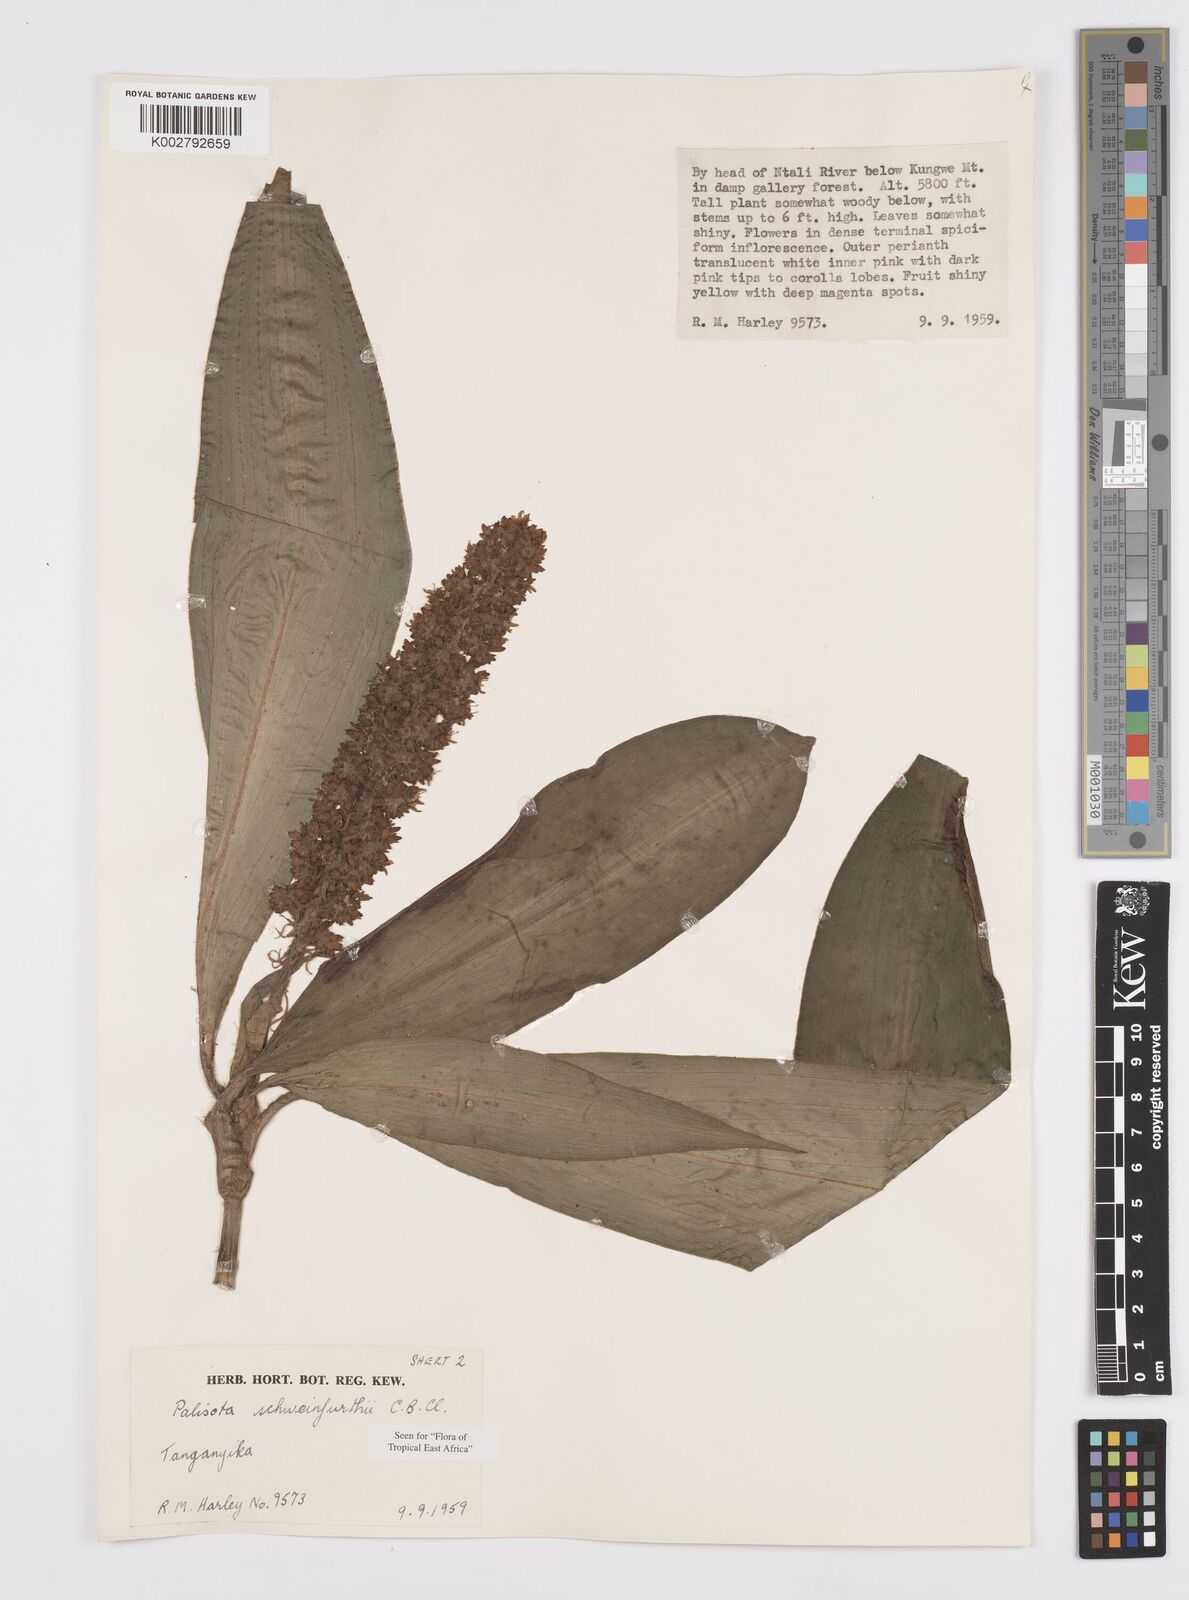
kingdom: Plantae
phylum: Tracheophyta
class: Liliopsida
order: Commelinales
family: Commelinaceae
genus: Palisota
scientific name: Palisota schweinfurthii
